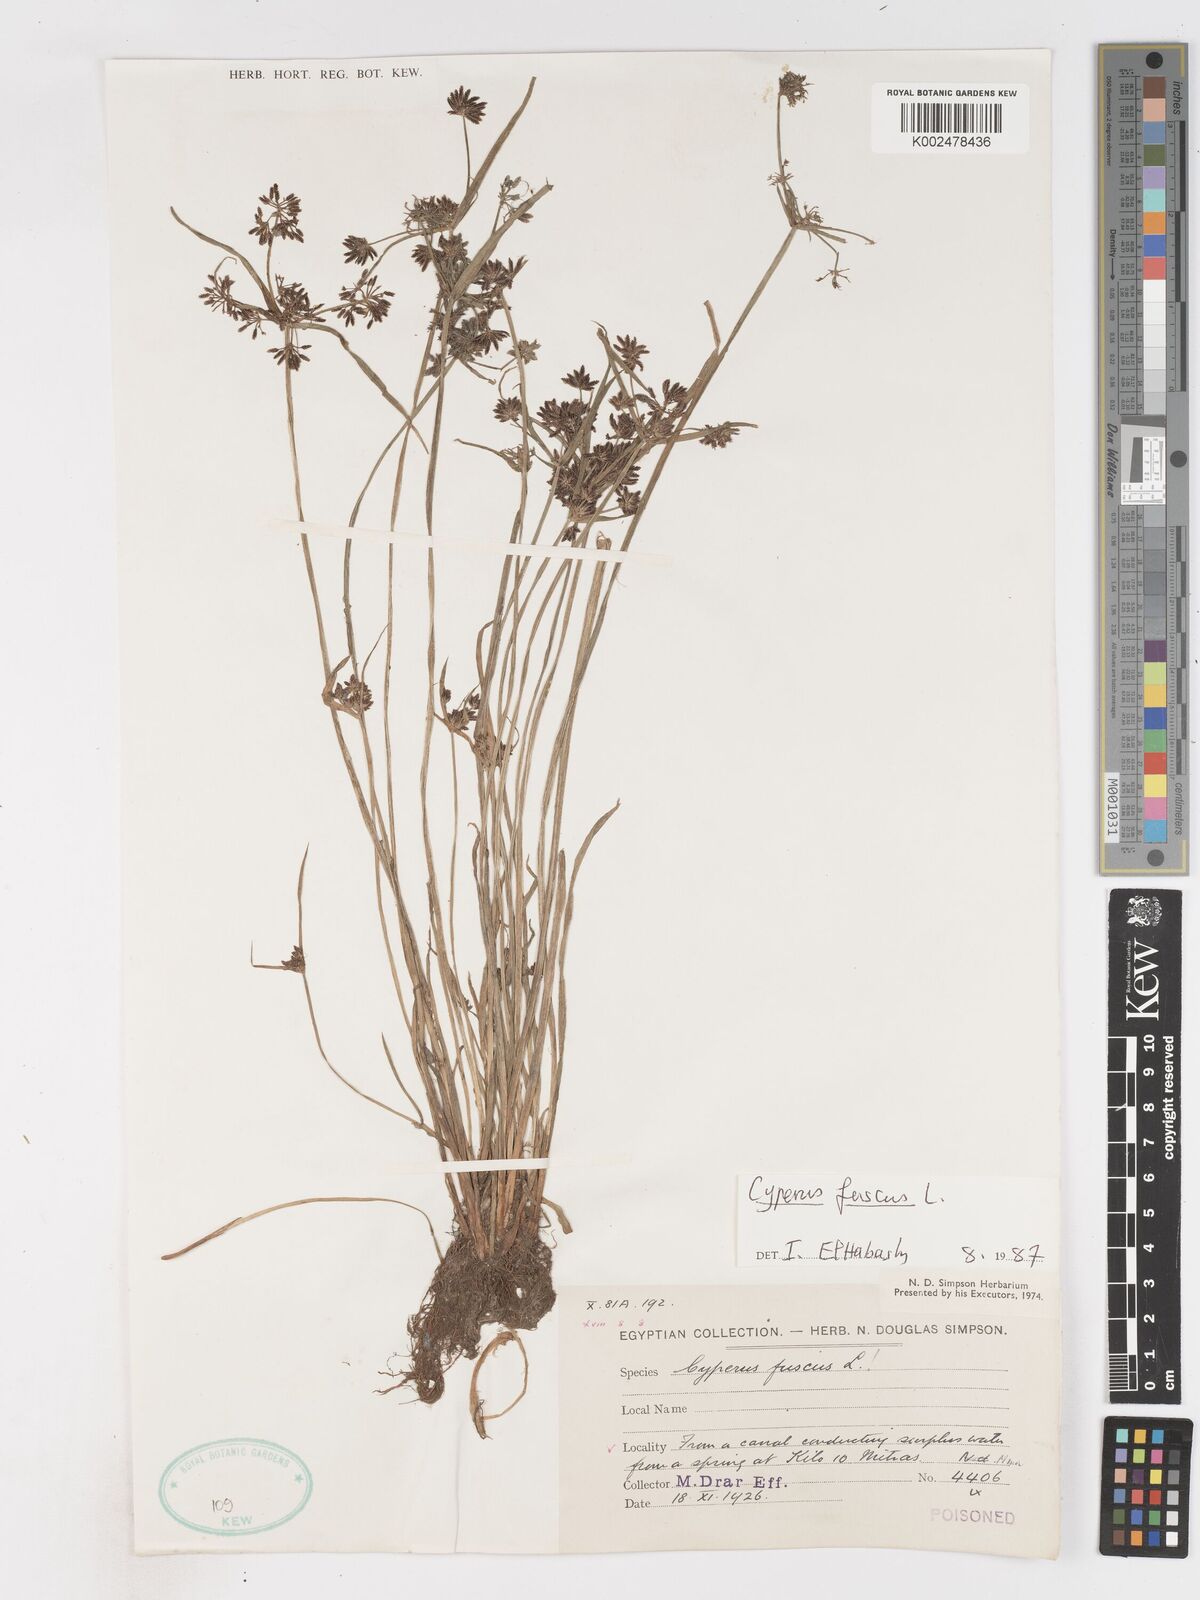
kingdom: Plantae
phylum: Tracheophyta
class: Liliopsida
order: Poales
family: Cyperaceae
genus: Cyperus
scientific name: Cyperus fuscus
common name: Brown galingale
